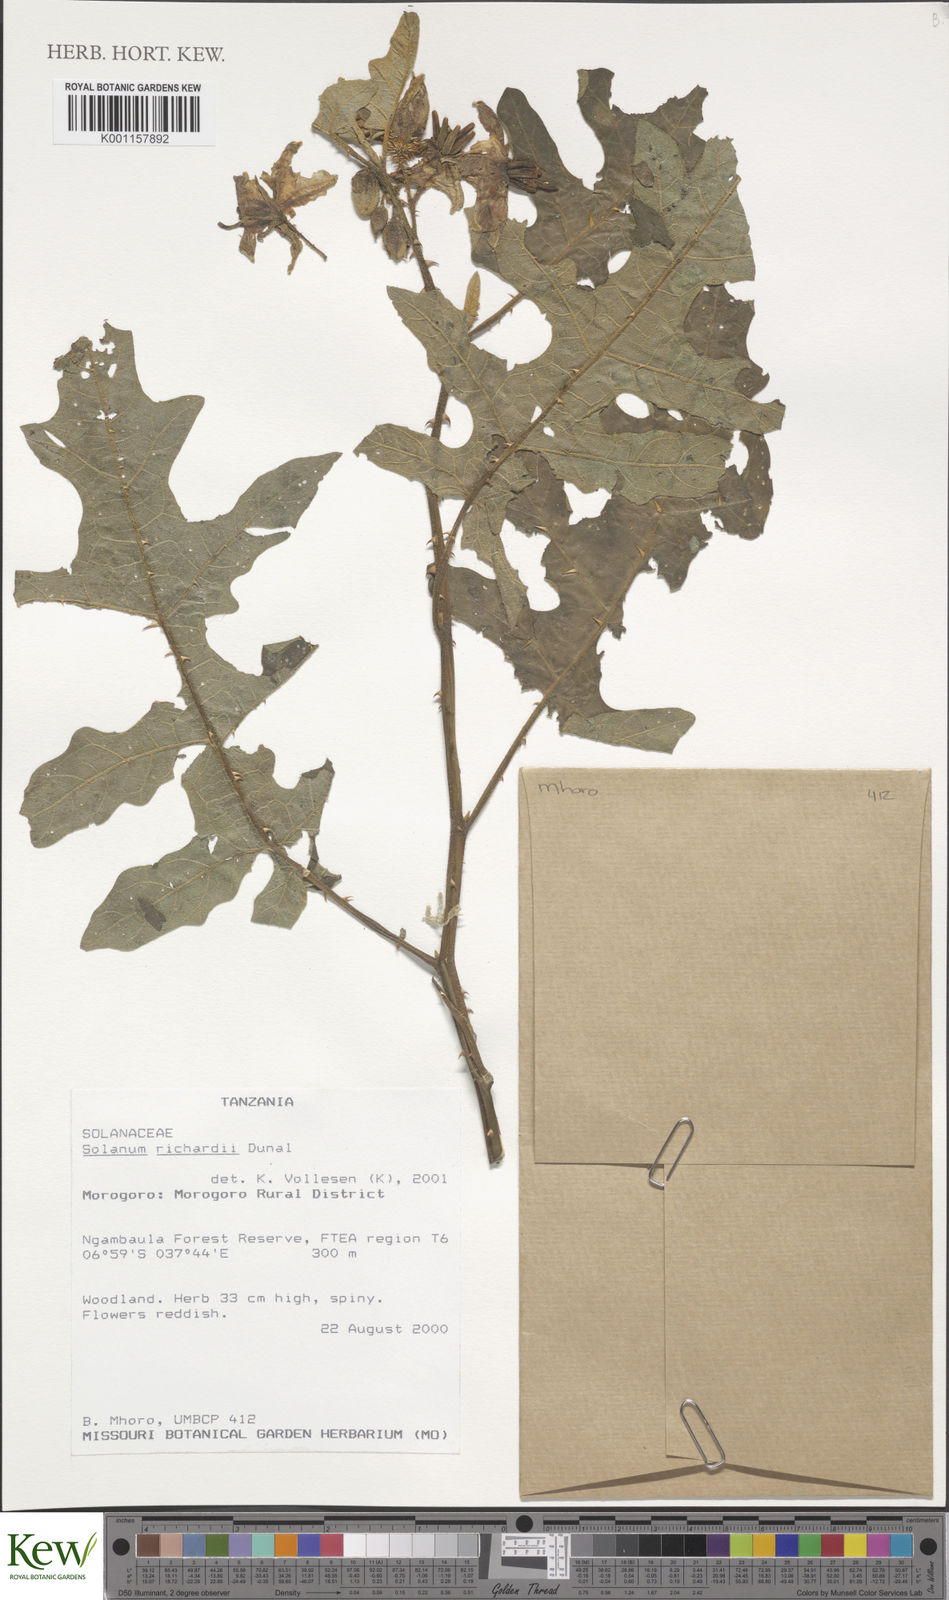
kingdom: Plantae
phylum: Tracheophyta
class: Magnoliopsida
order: Solanales
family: Solanaceae
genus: Solanum
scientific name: Solanum
